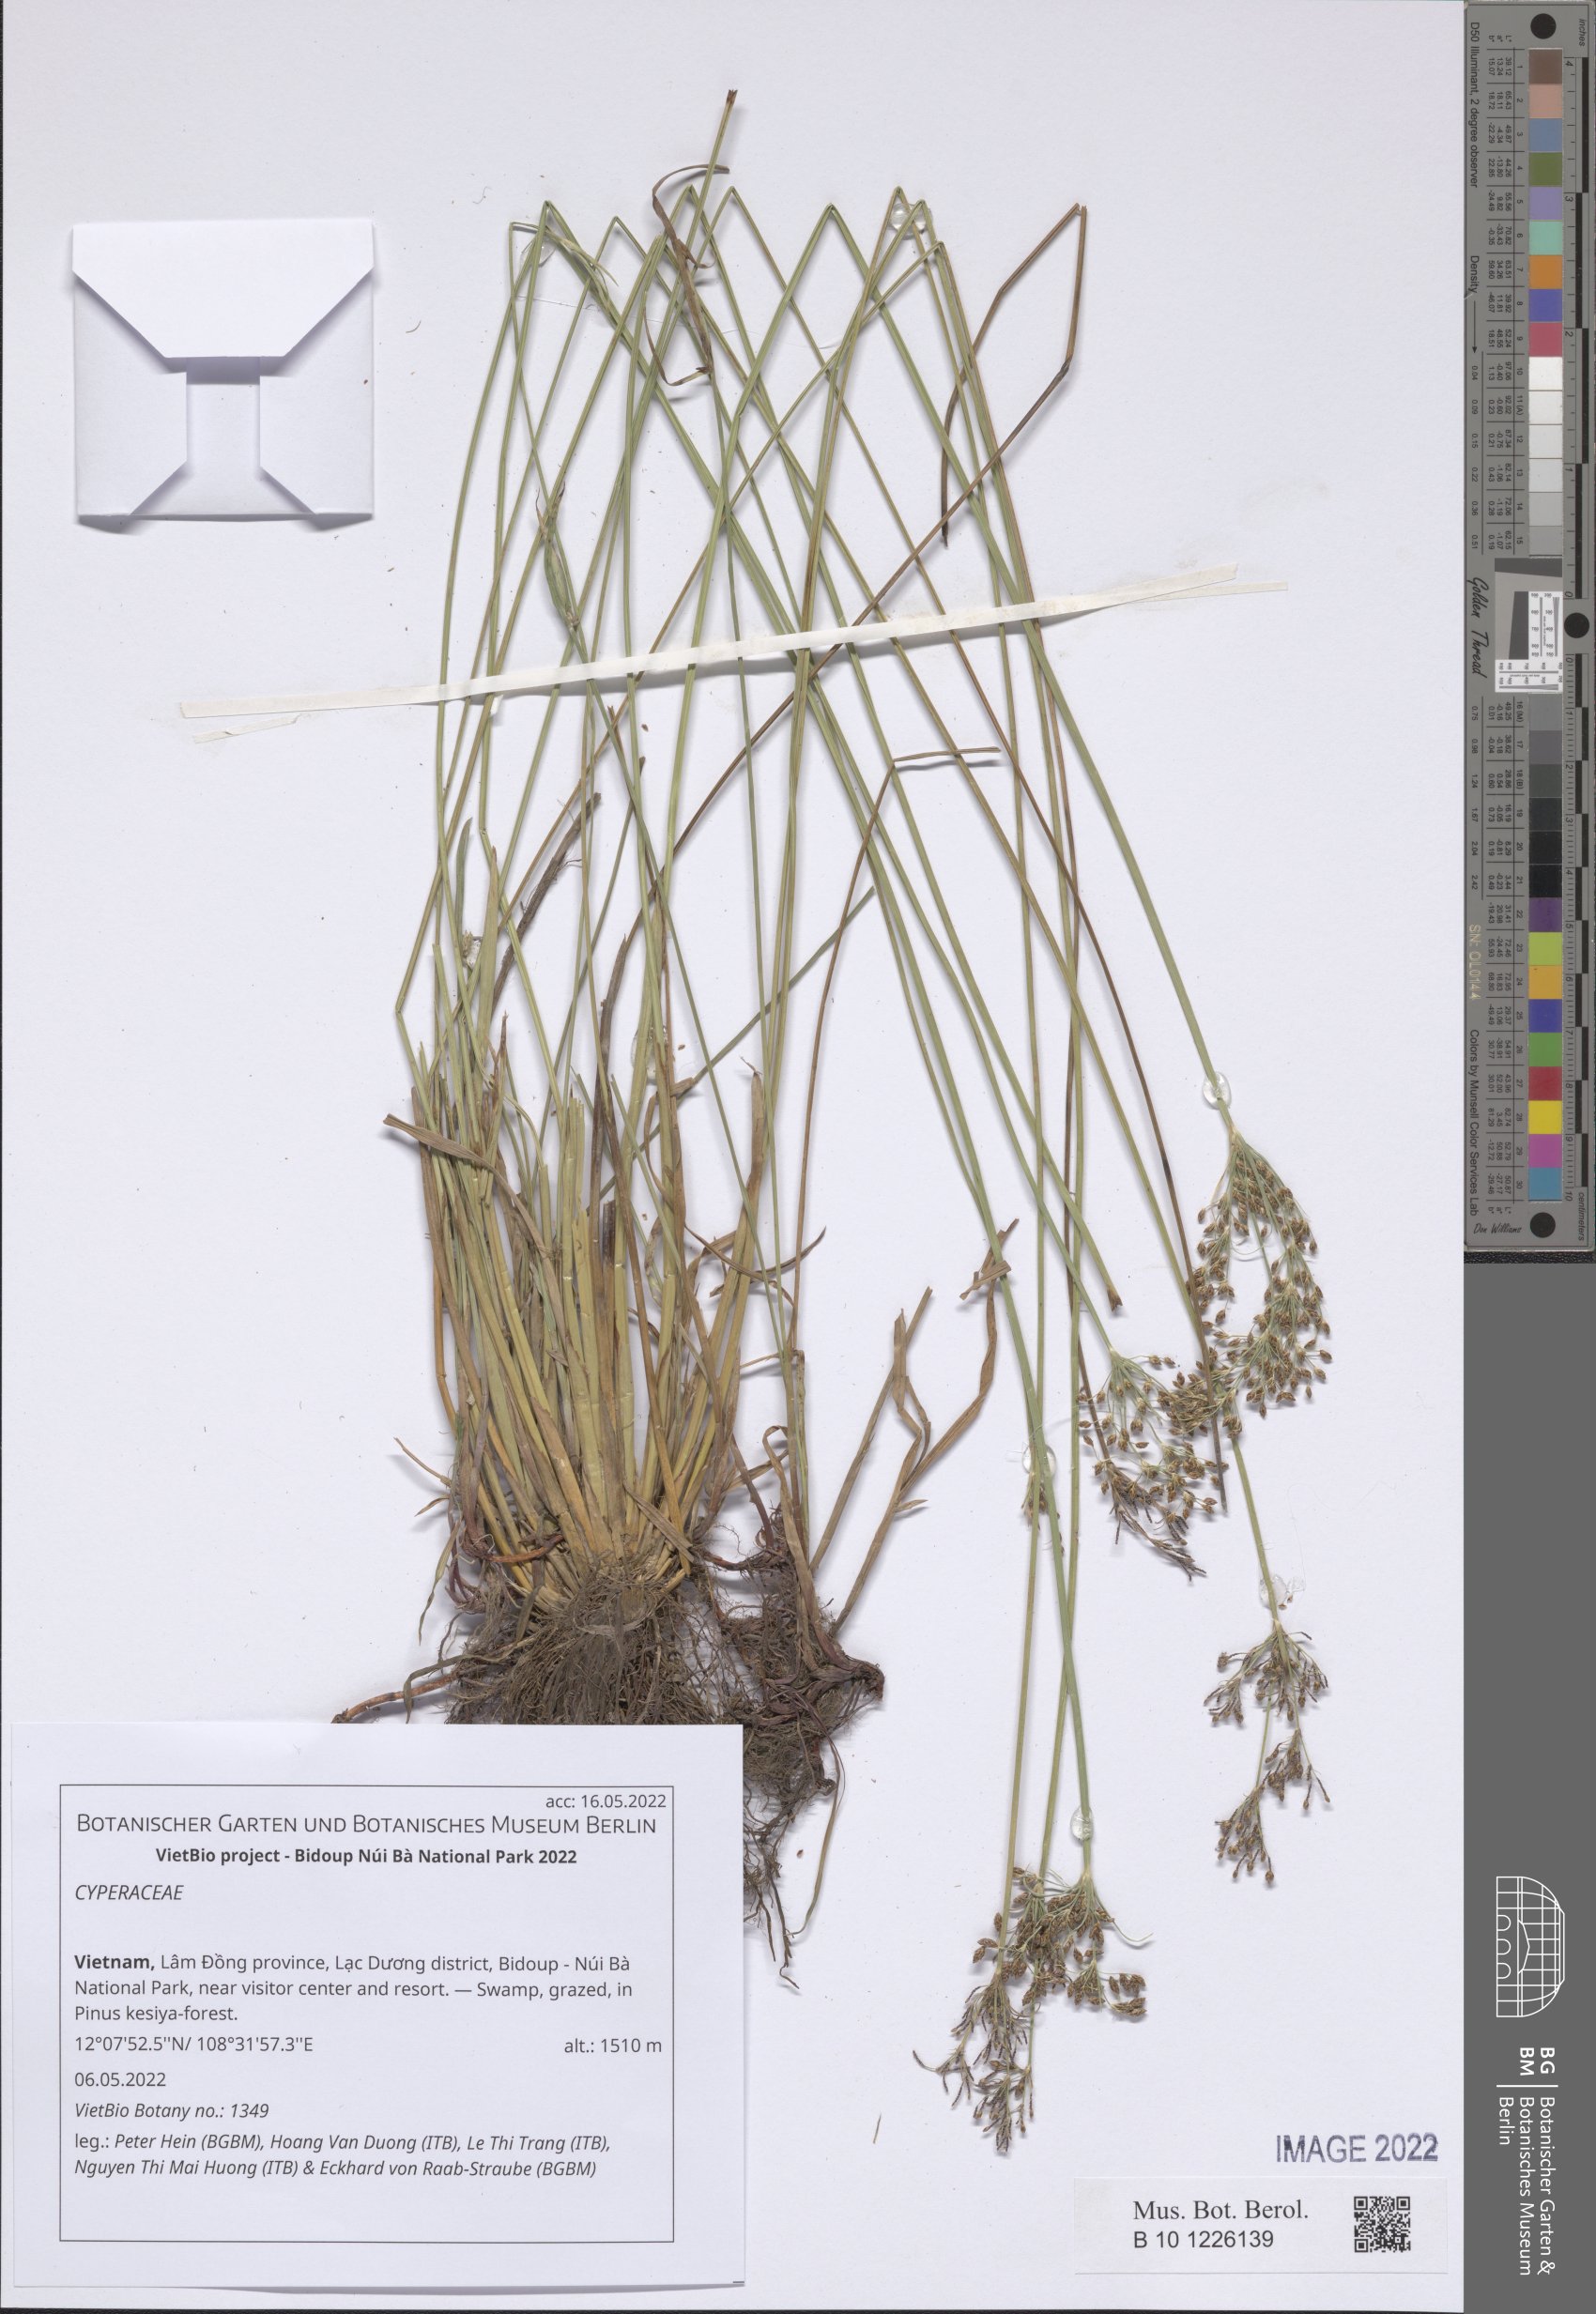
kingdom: Plantae
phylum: Tracheophyta
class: Liliopsida
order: Poales
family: Cyperaceae
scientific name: Cyperaceae
